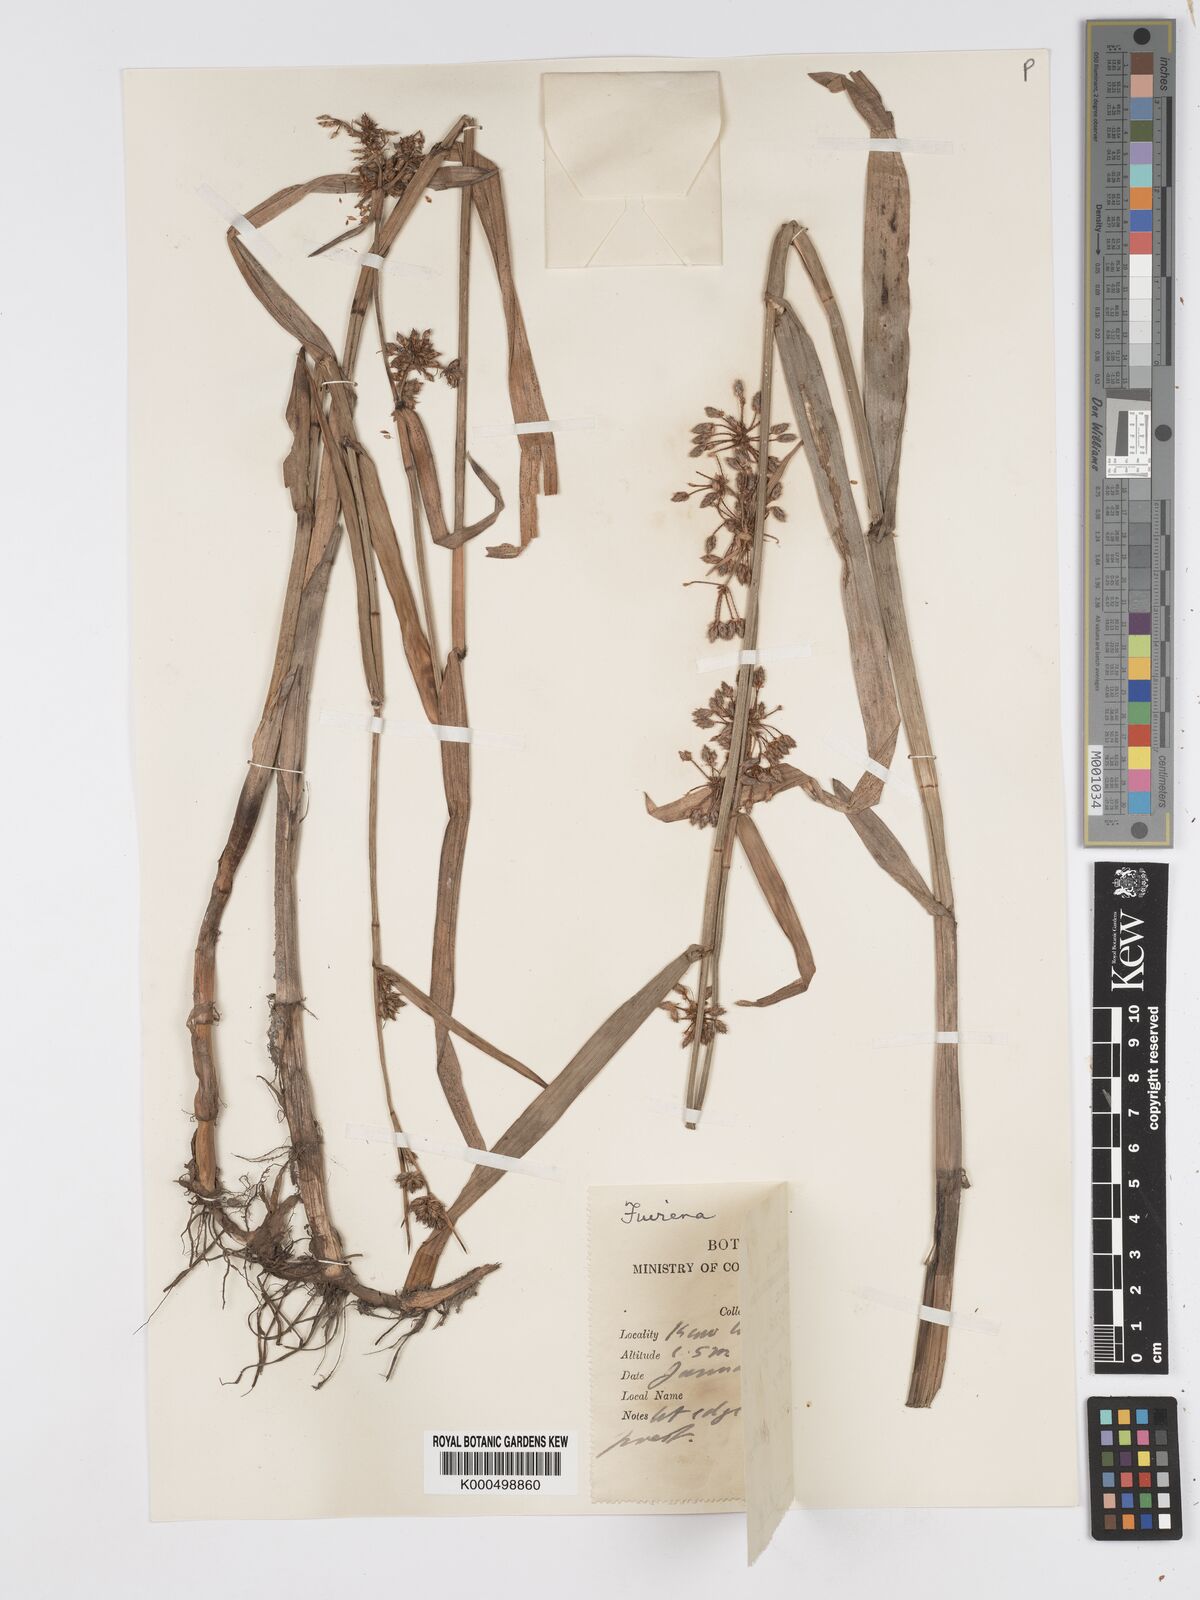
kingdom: Plantae
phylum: Tracheophyta
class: Liliopsida
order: Poales
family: Cyperaceae
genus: Fuirena
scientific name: Fuirena umbellata
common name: Yefen
